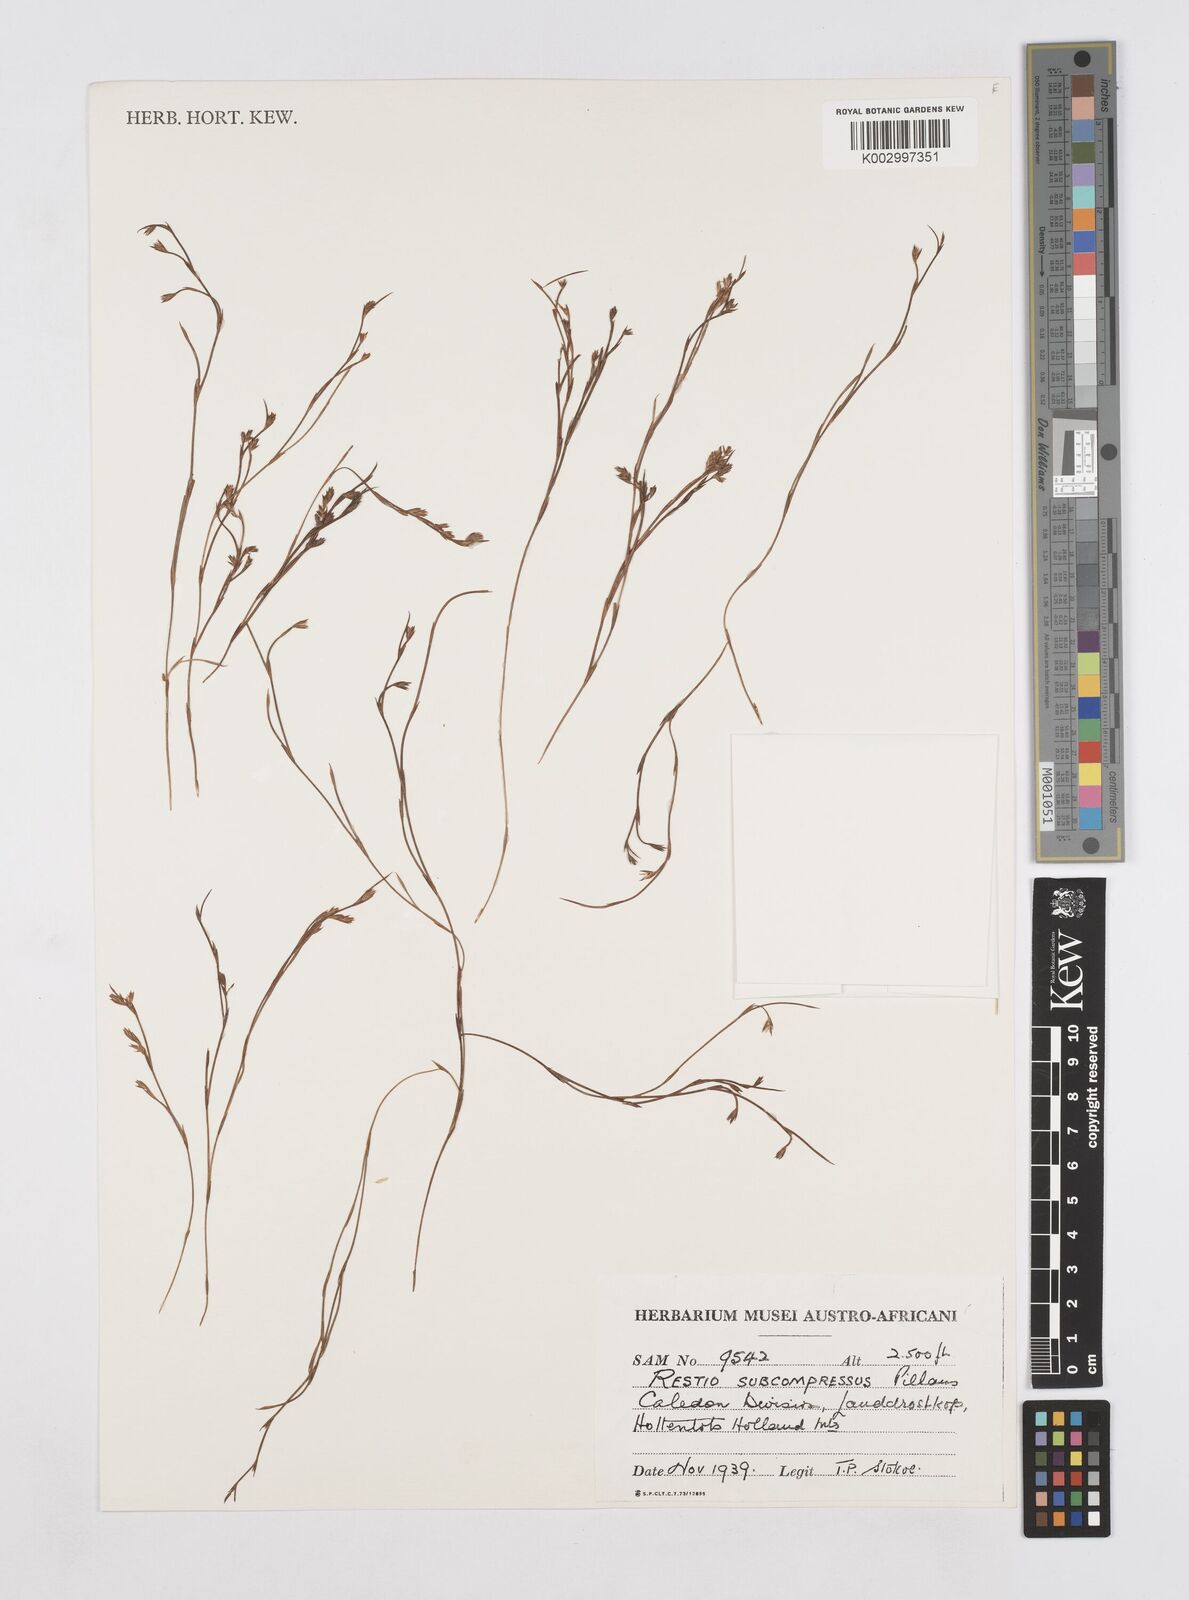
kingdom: Plantae
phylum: Tracheophyta
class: Liliopsida
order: Poales
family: Restionaceae
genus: Platycaulos
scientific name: Platycaulos subcompressus
